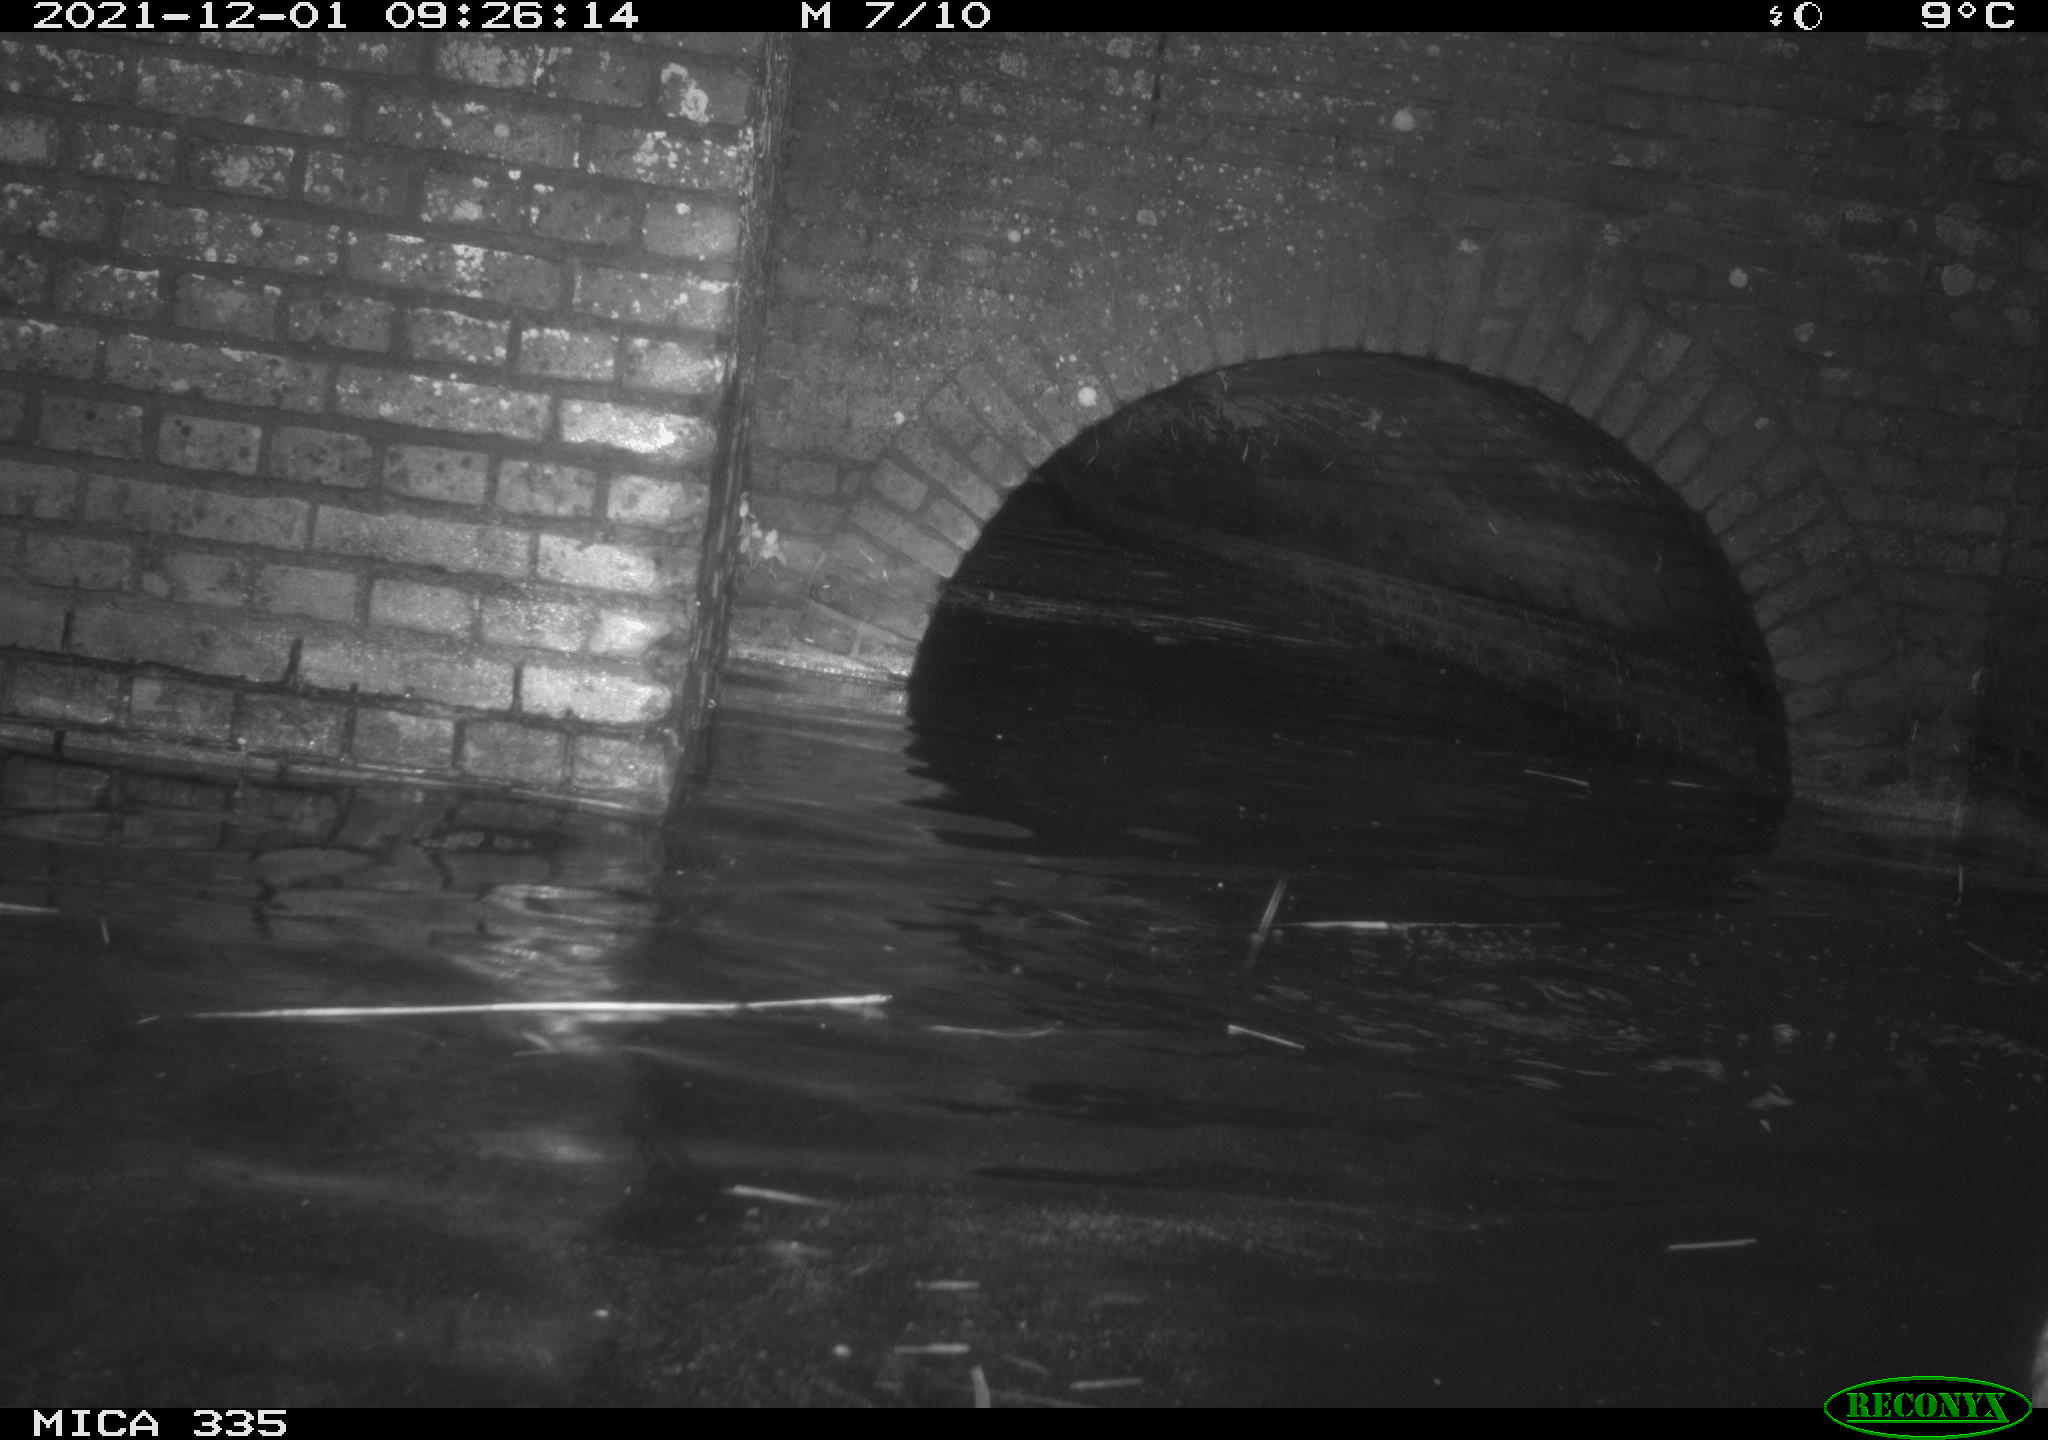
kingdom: Animalia
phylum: Chordata
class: Aves
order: Suliformes
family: Phalacrocoracidae
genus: Phalacrocorax
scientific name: Phalacrocorax carbo
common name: Great cormorant
